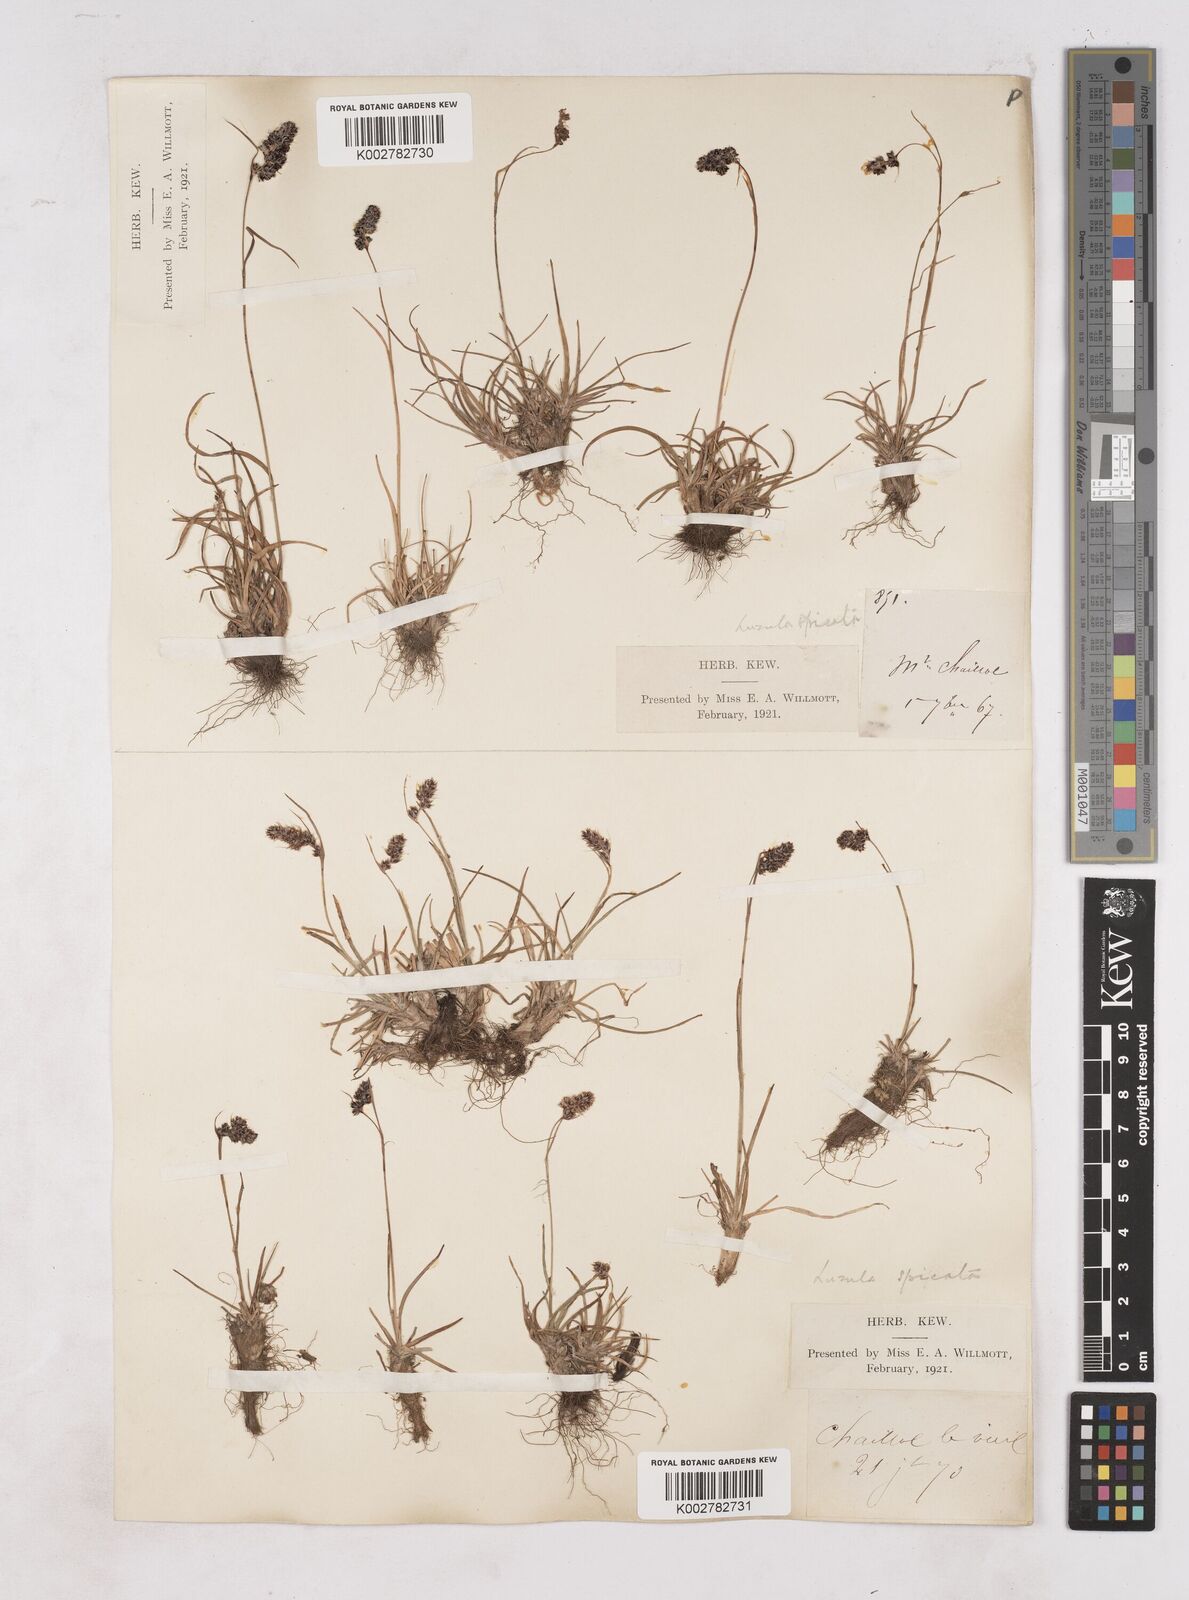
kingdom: Plantae
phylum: Tracheophyta
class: Liliopsida
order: Poales
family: Juncaceae
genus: Luzula
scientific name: Luzula spicata
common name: Spiked wood-rush
